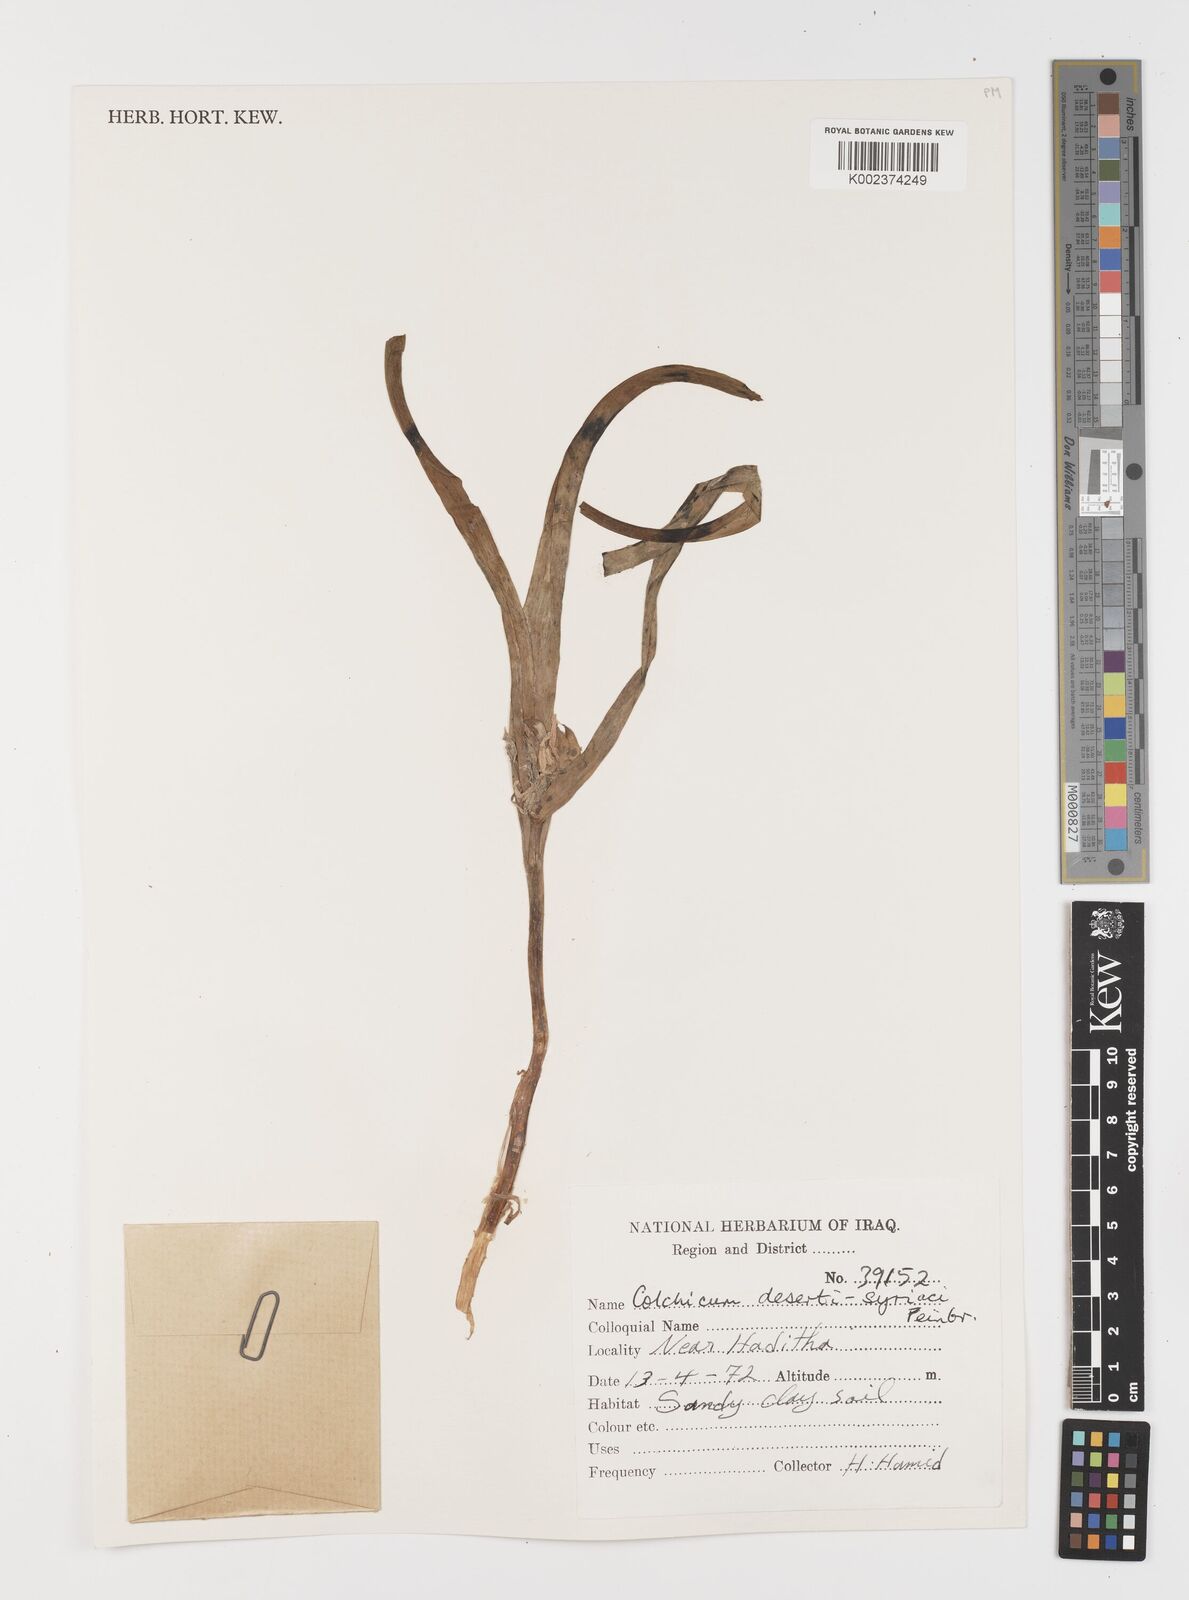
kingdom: Plantae
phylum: Tracheophyta
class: Liliopsida
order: Liliales
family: Colchicaceae
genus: Colchicum
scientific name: Colchicum schimperi
